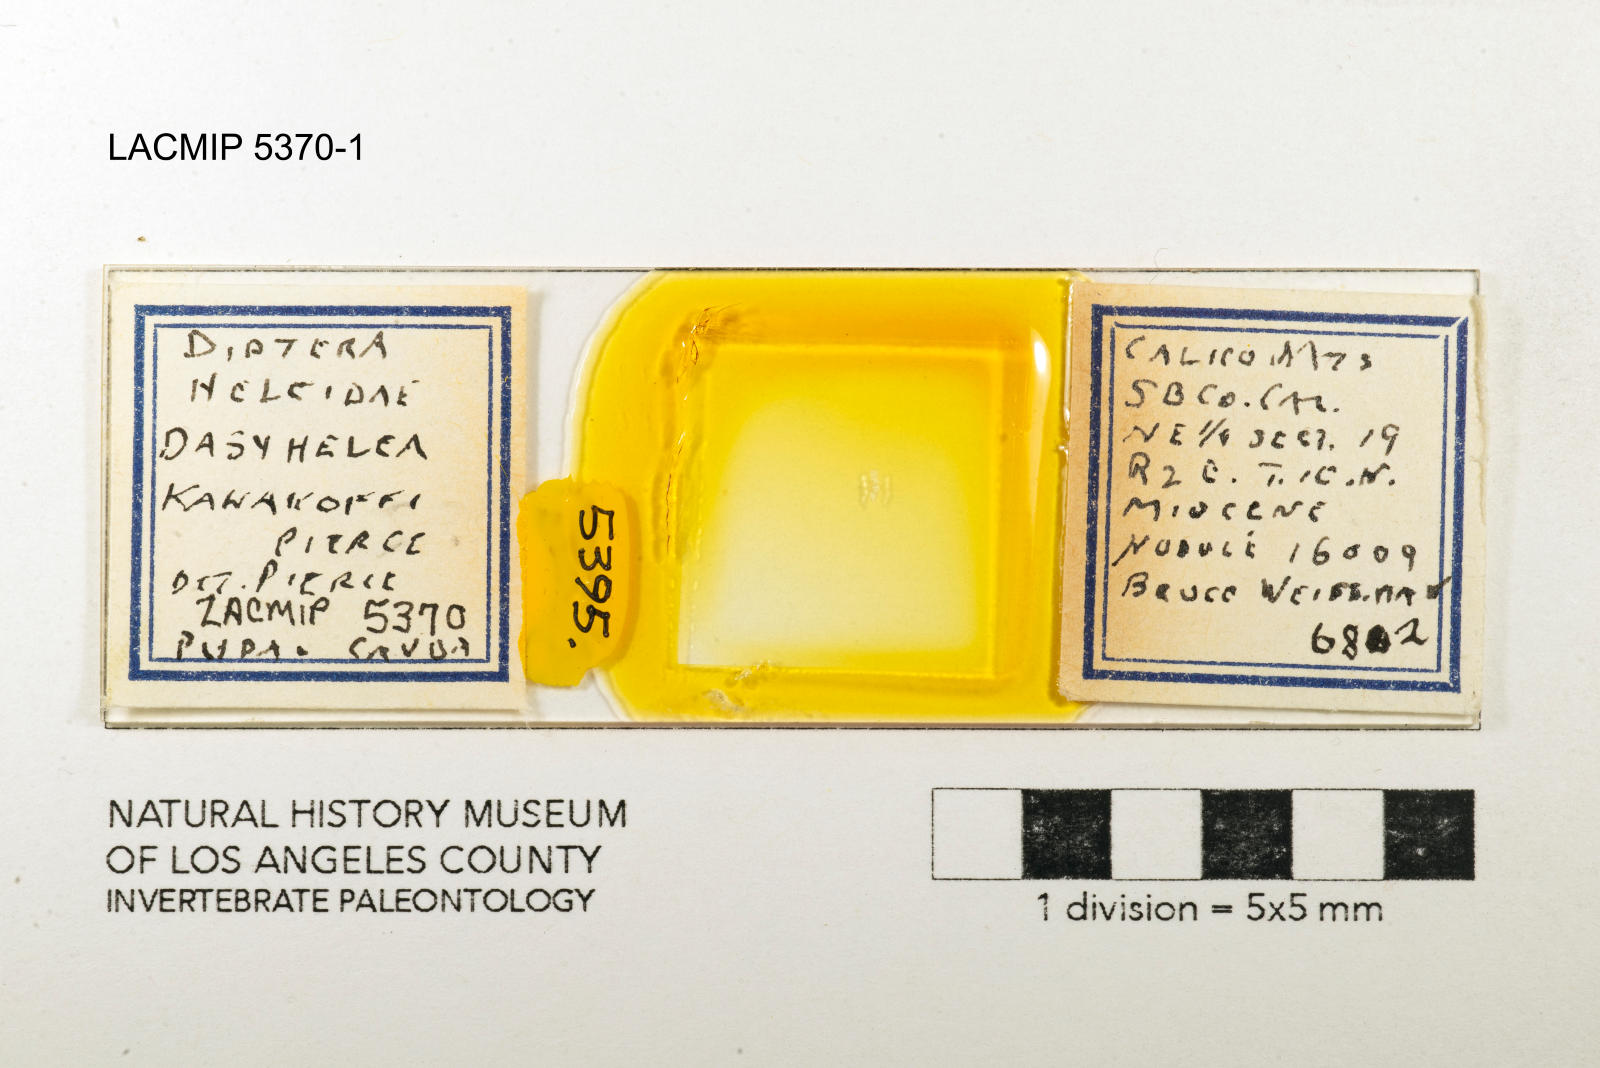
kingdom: Animalia
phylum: Arthropoda
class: Insecta
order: Diptera
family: Ceratopogonidae
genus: Dasyhelea
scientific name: Dasyhelea kanakoffi
